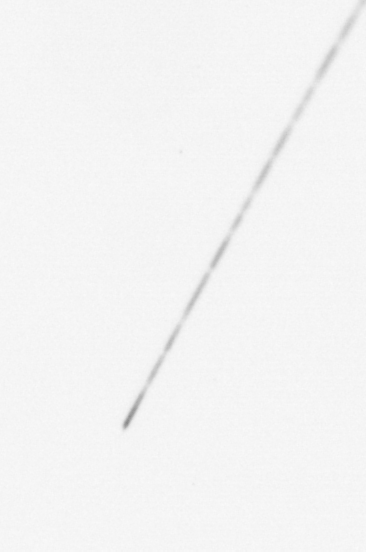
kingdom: Chromista
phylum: Ochrophyta
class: Bacillariophyceae
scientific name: Bacillariophyceae
